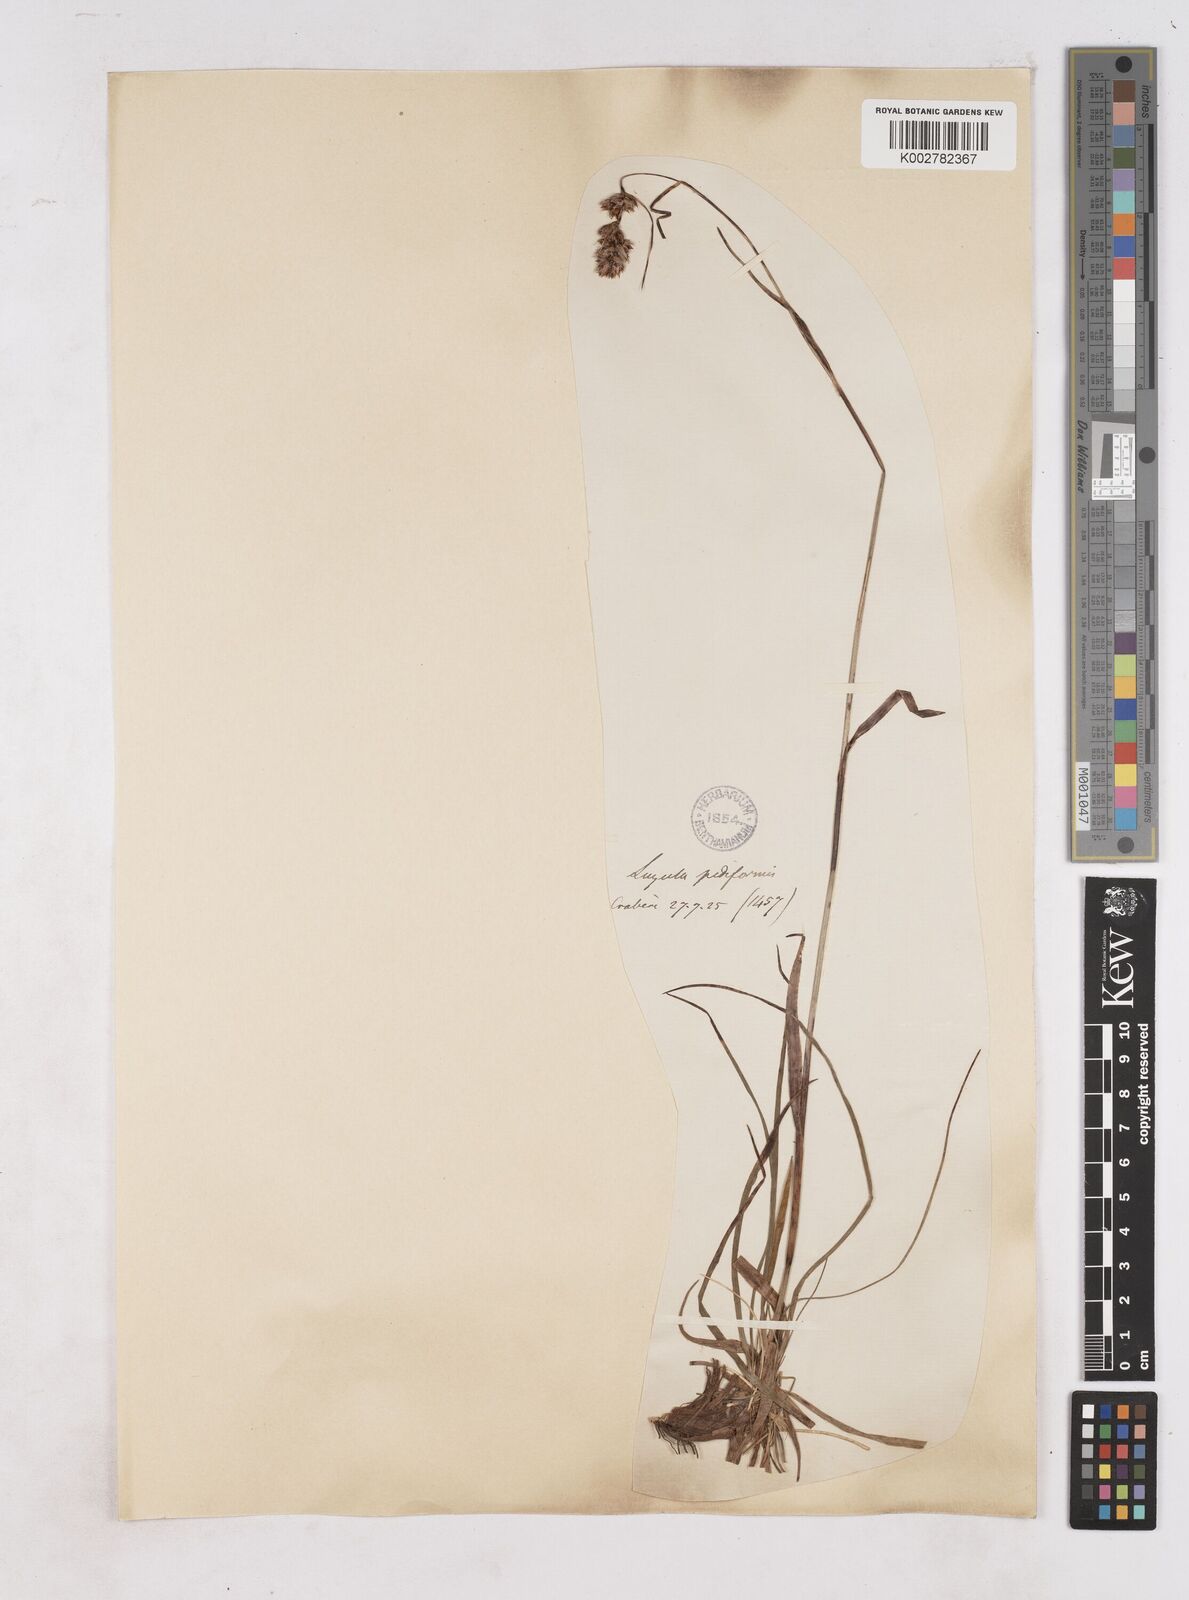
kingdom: Plantae
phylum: Tracheophyta
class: Liliopsida
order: Poales
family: Juncaceae
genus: Luzula
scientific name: Luzula pediformis
